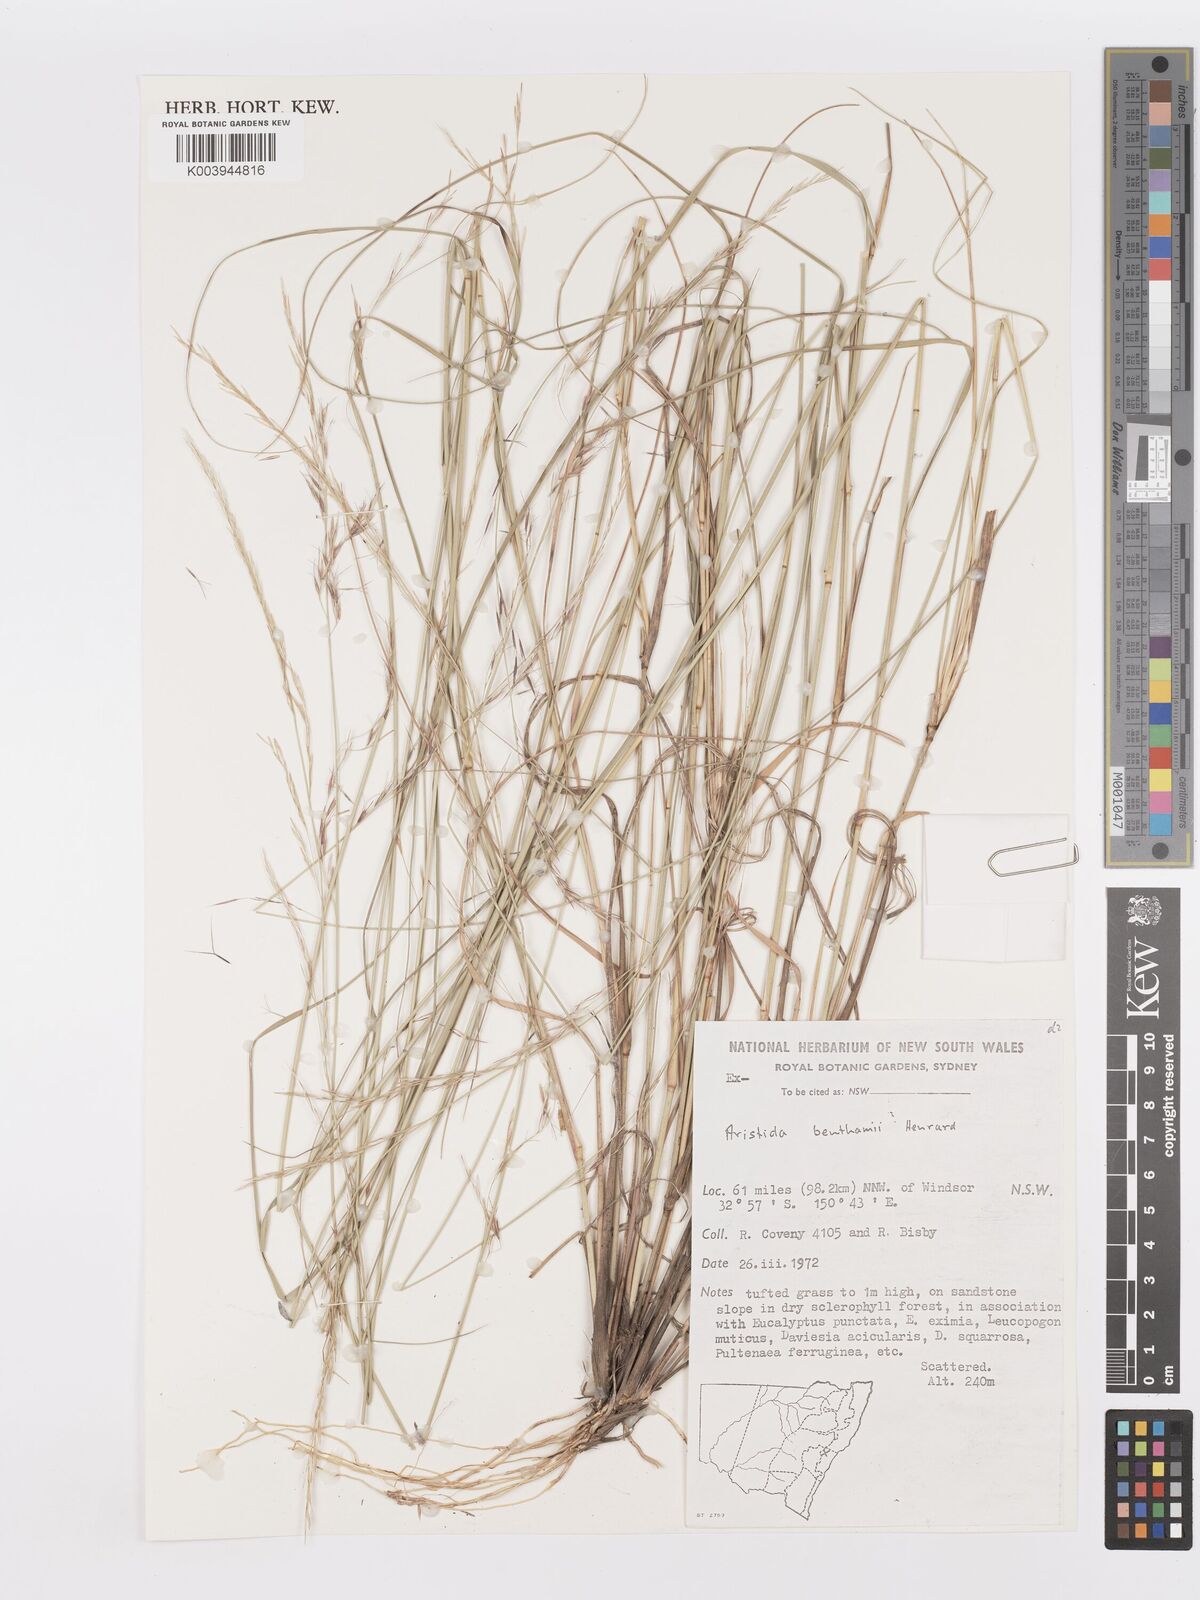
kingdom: Plantae
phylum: Tracheophyta
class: Liliopsida
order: Poales
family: Poaceae
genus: Aristida
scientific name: Aristida benthamii
